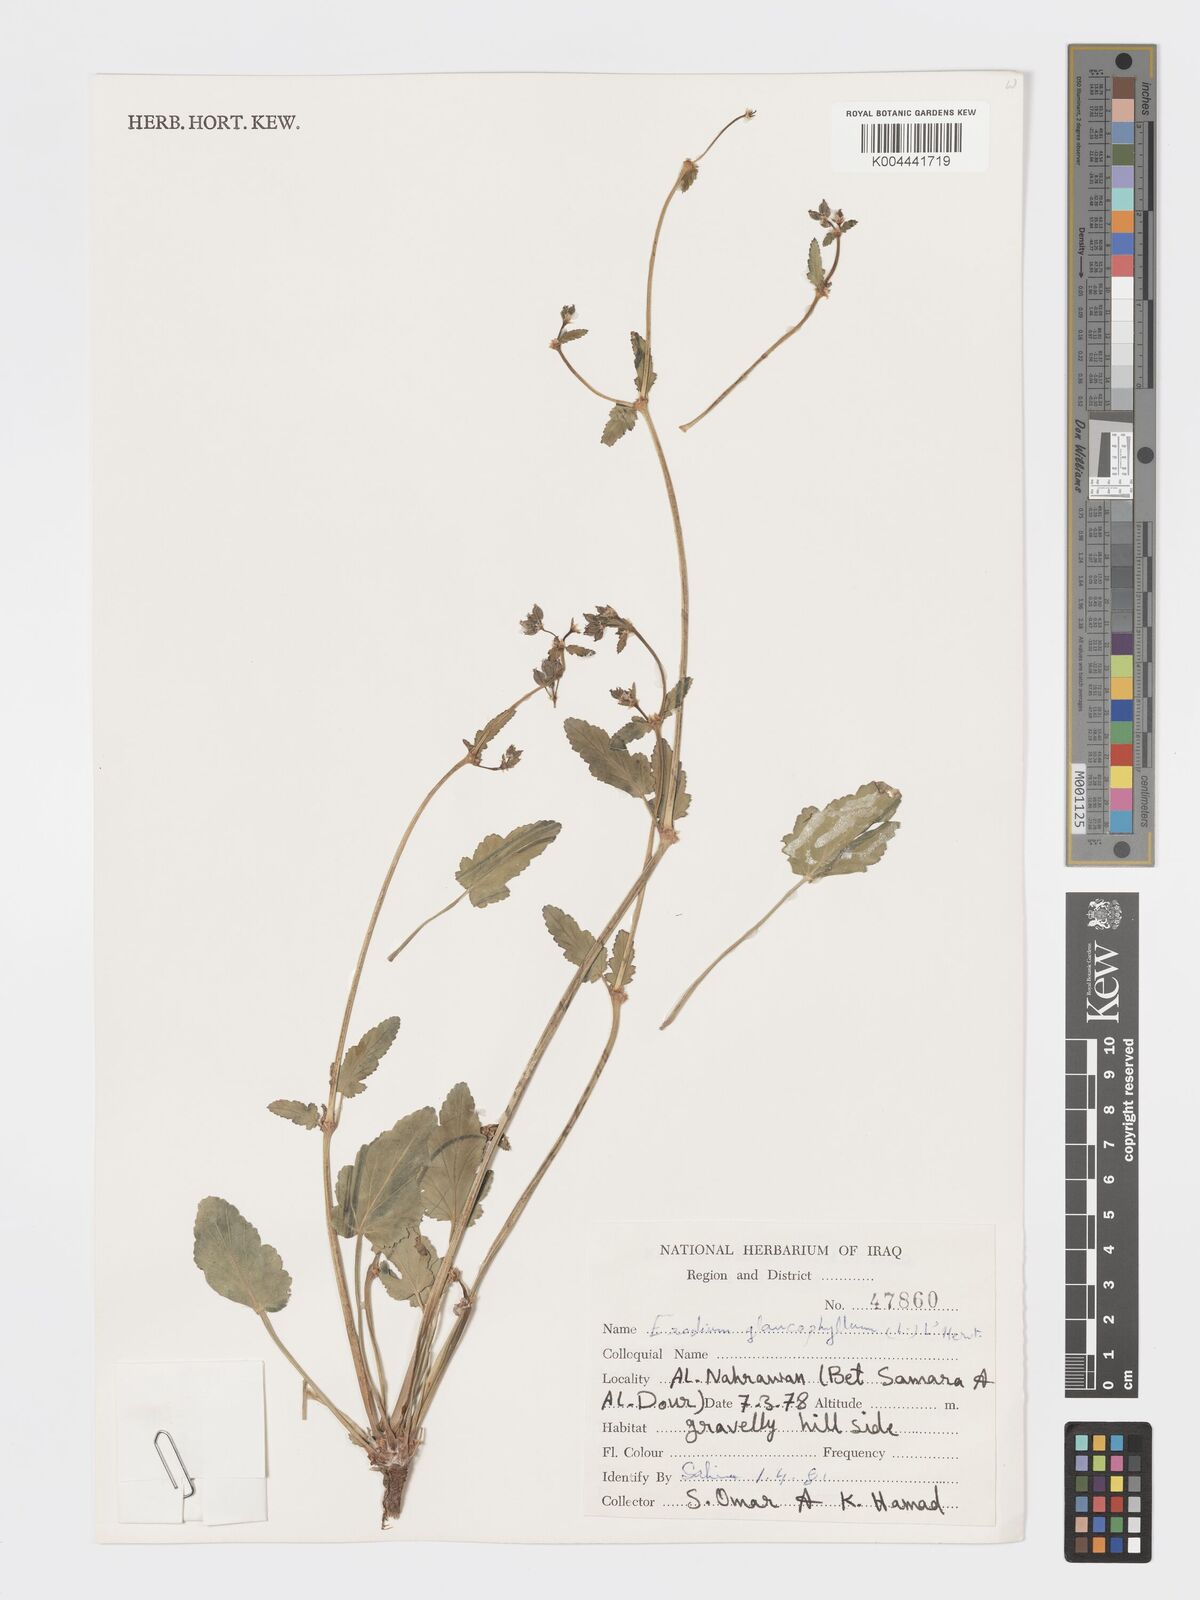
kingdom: Plantae
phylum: Tracheophyta
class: Magnoliopsida
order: Geraniales
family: Geraniaceae
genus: Erodium
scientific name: Erodium glaucophyllum
